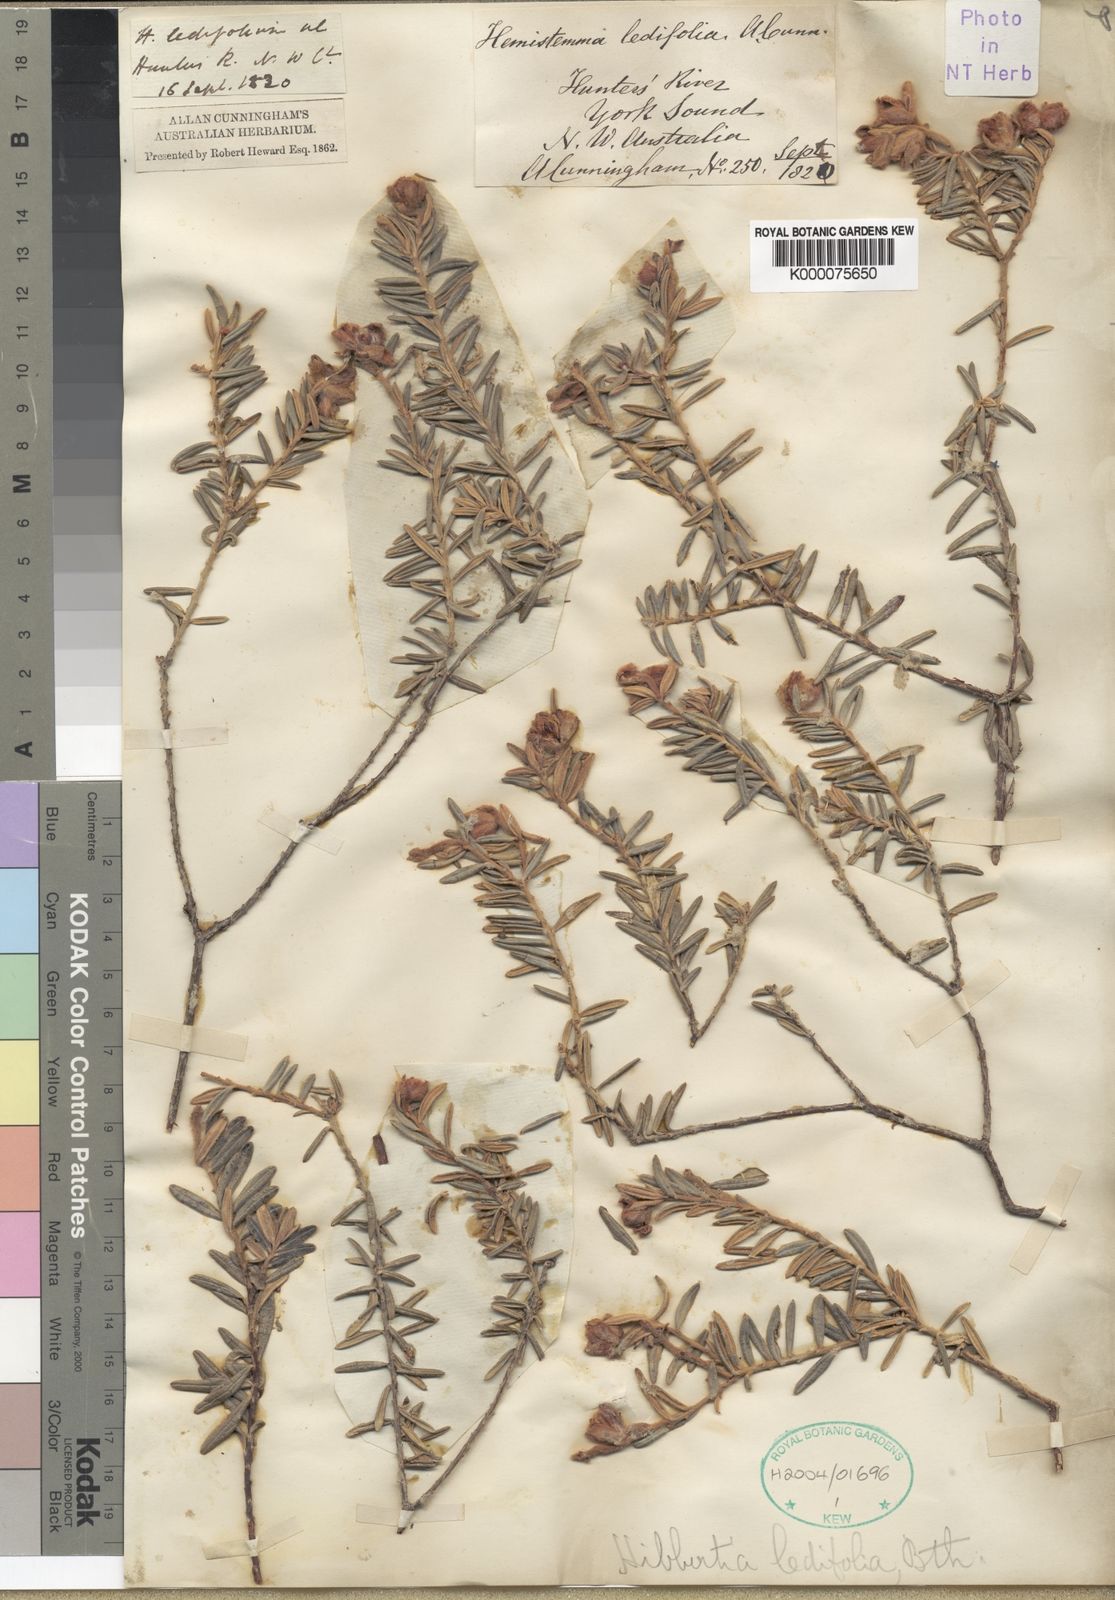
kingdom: Plantae
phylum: Tracheophyta
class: Magnoliopsida
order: Dilleniales
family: Dilleniaceae
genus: Hibbertia
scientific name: Hibbertia ledifolia
